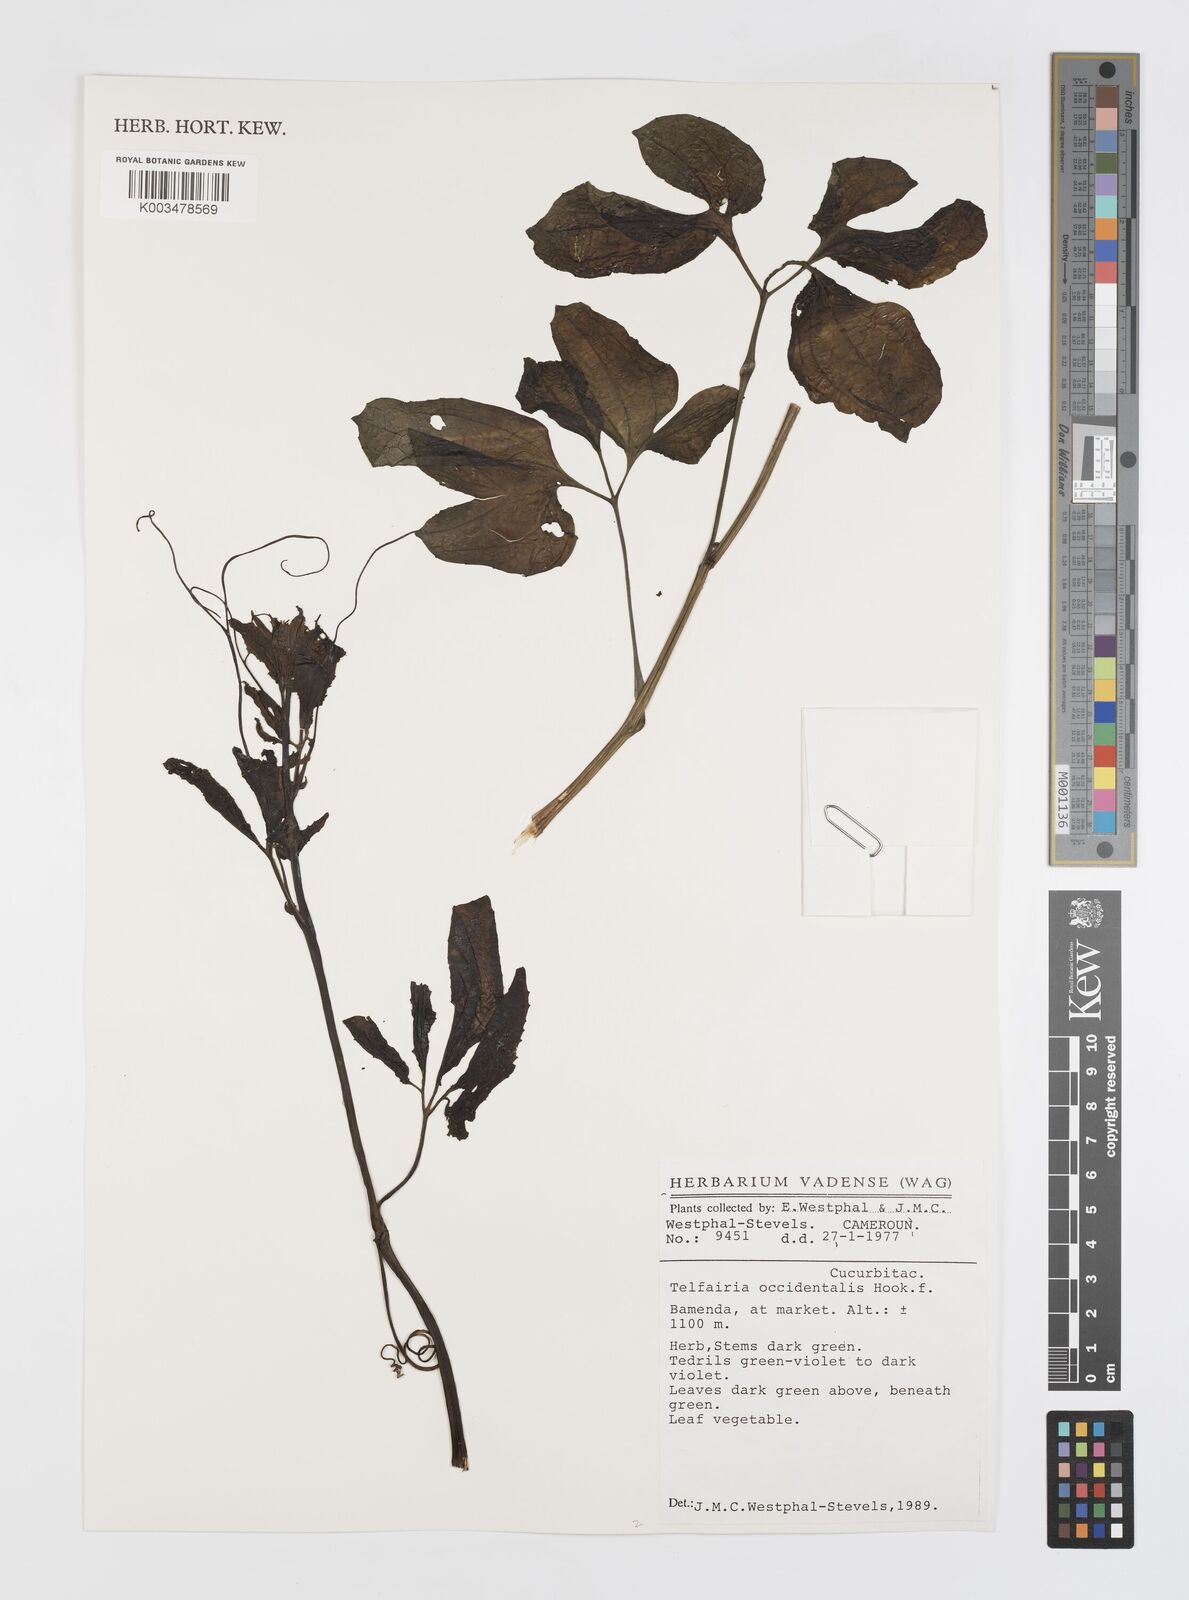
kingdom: Plantae
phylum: Tracheophyta
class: Magnoliopsida
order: Cucurbitales
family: Cucurbitaceae
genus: Telfairia
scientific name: Telfairia occidentalis
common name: Oysternut
